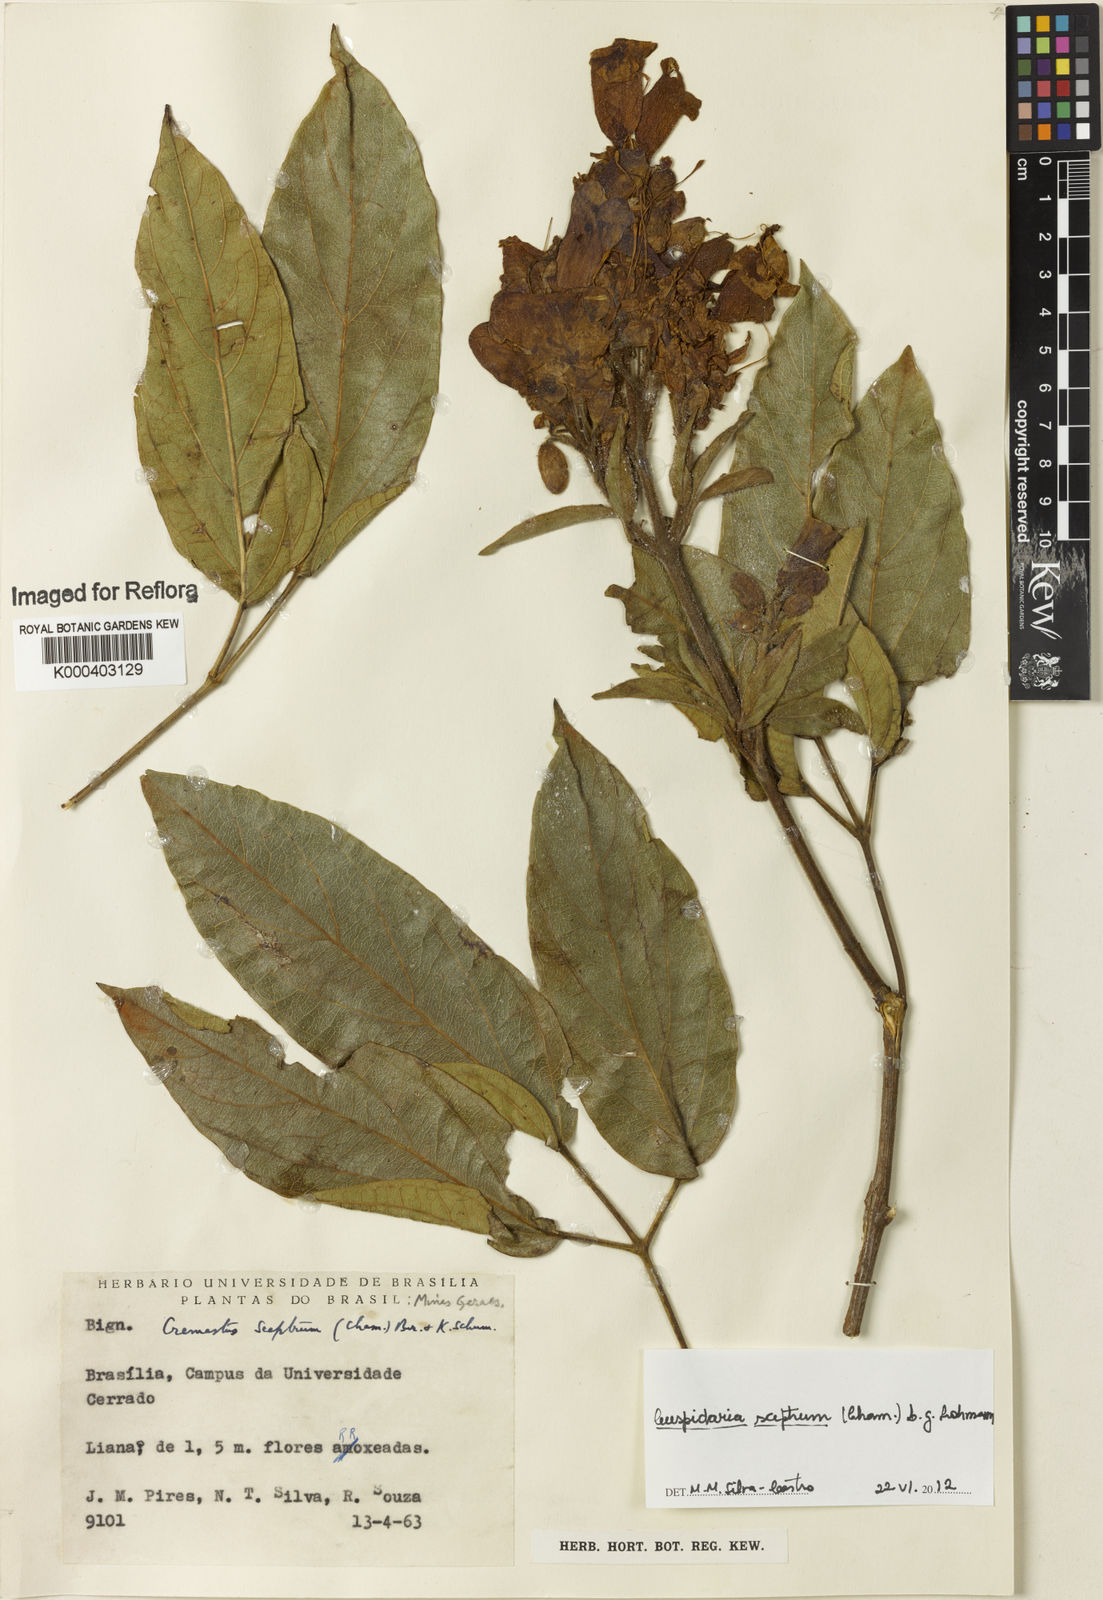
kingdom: Plantae
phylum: Tracheophyta
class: Magnoliopsida
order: Lamiales
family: Bignoniaceae
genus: Cuspidaria
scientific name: Cuspidaria sceptrum
